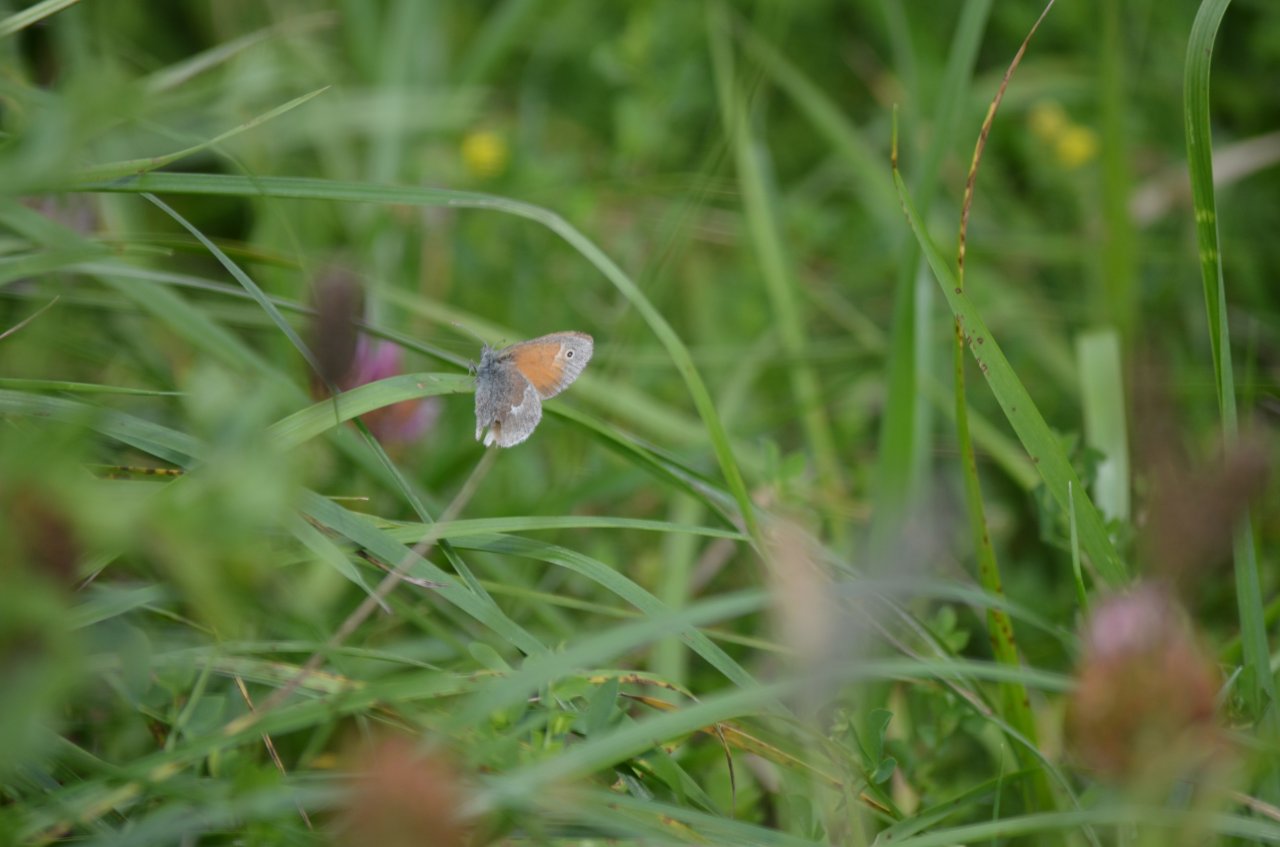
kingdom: Animalia
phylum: Arthropoda
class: Insecta
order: Lepidoptera
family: Nymphalidae
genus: Coenonympha
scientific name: Coenonympha tullia
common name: Large Heath
